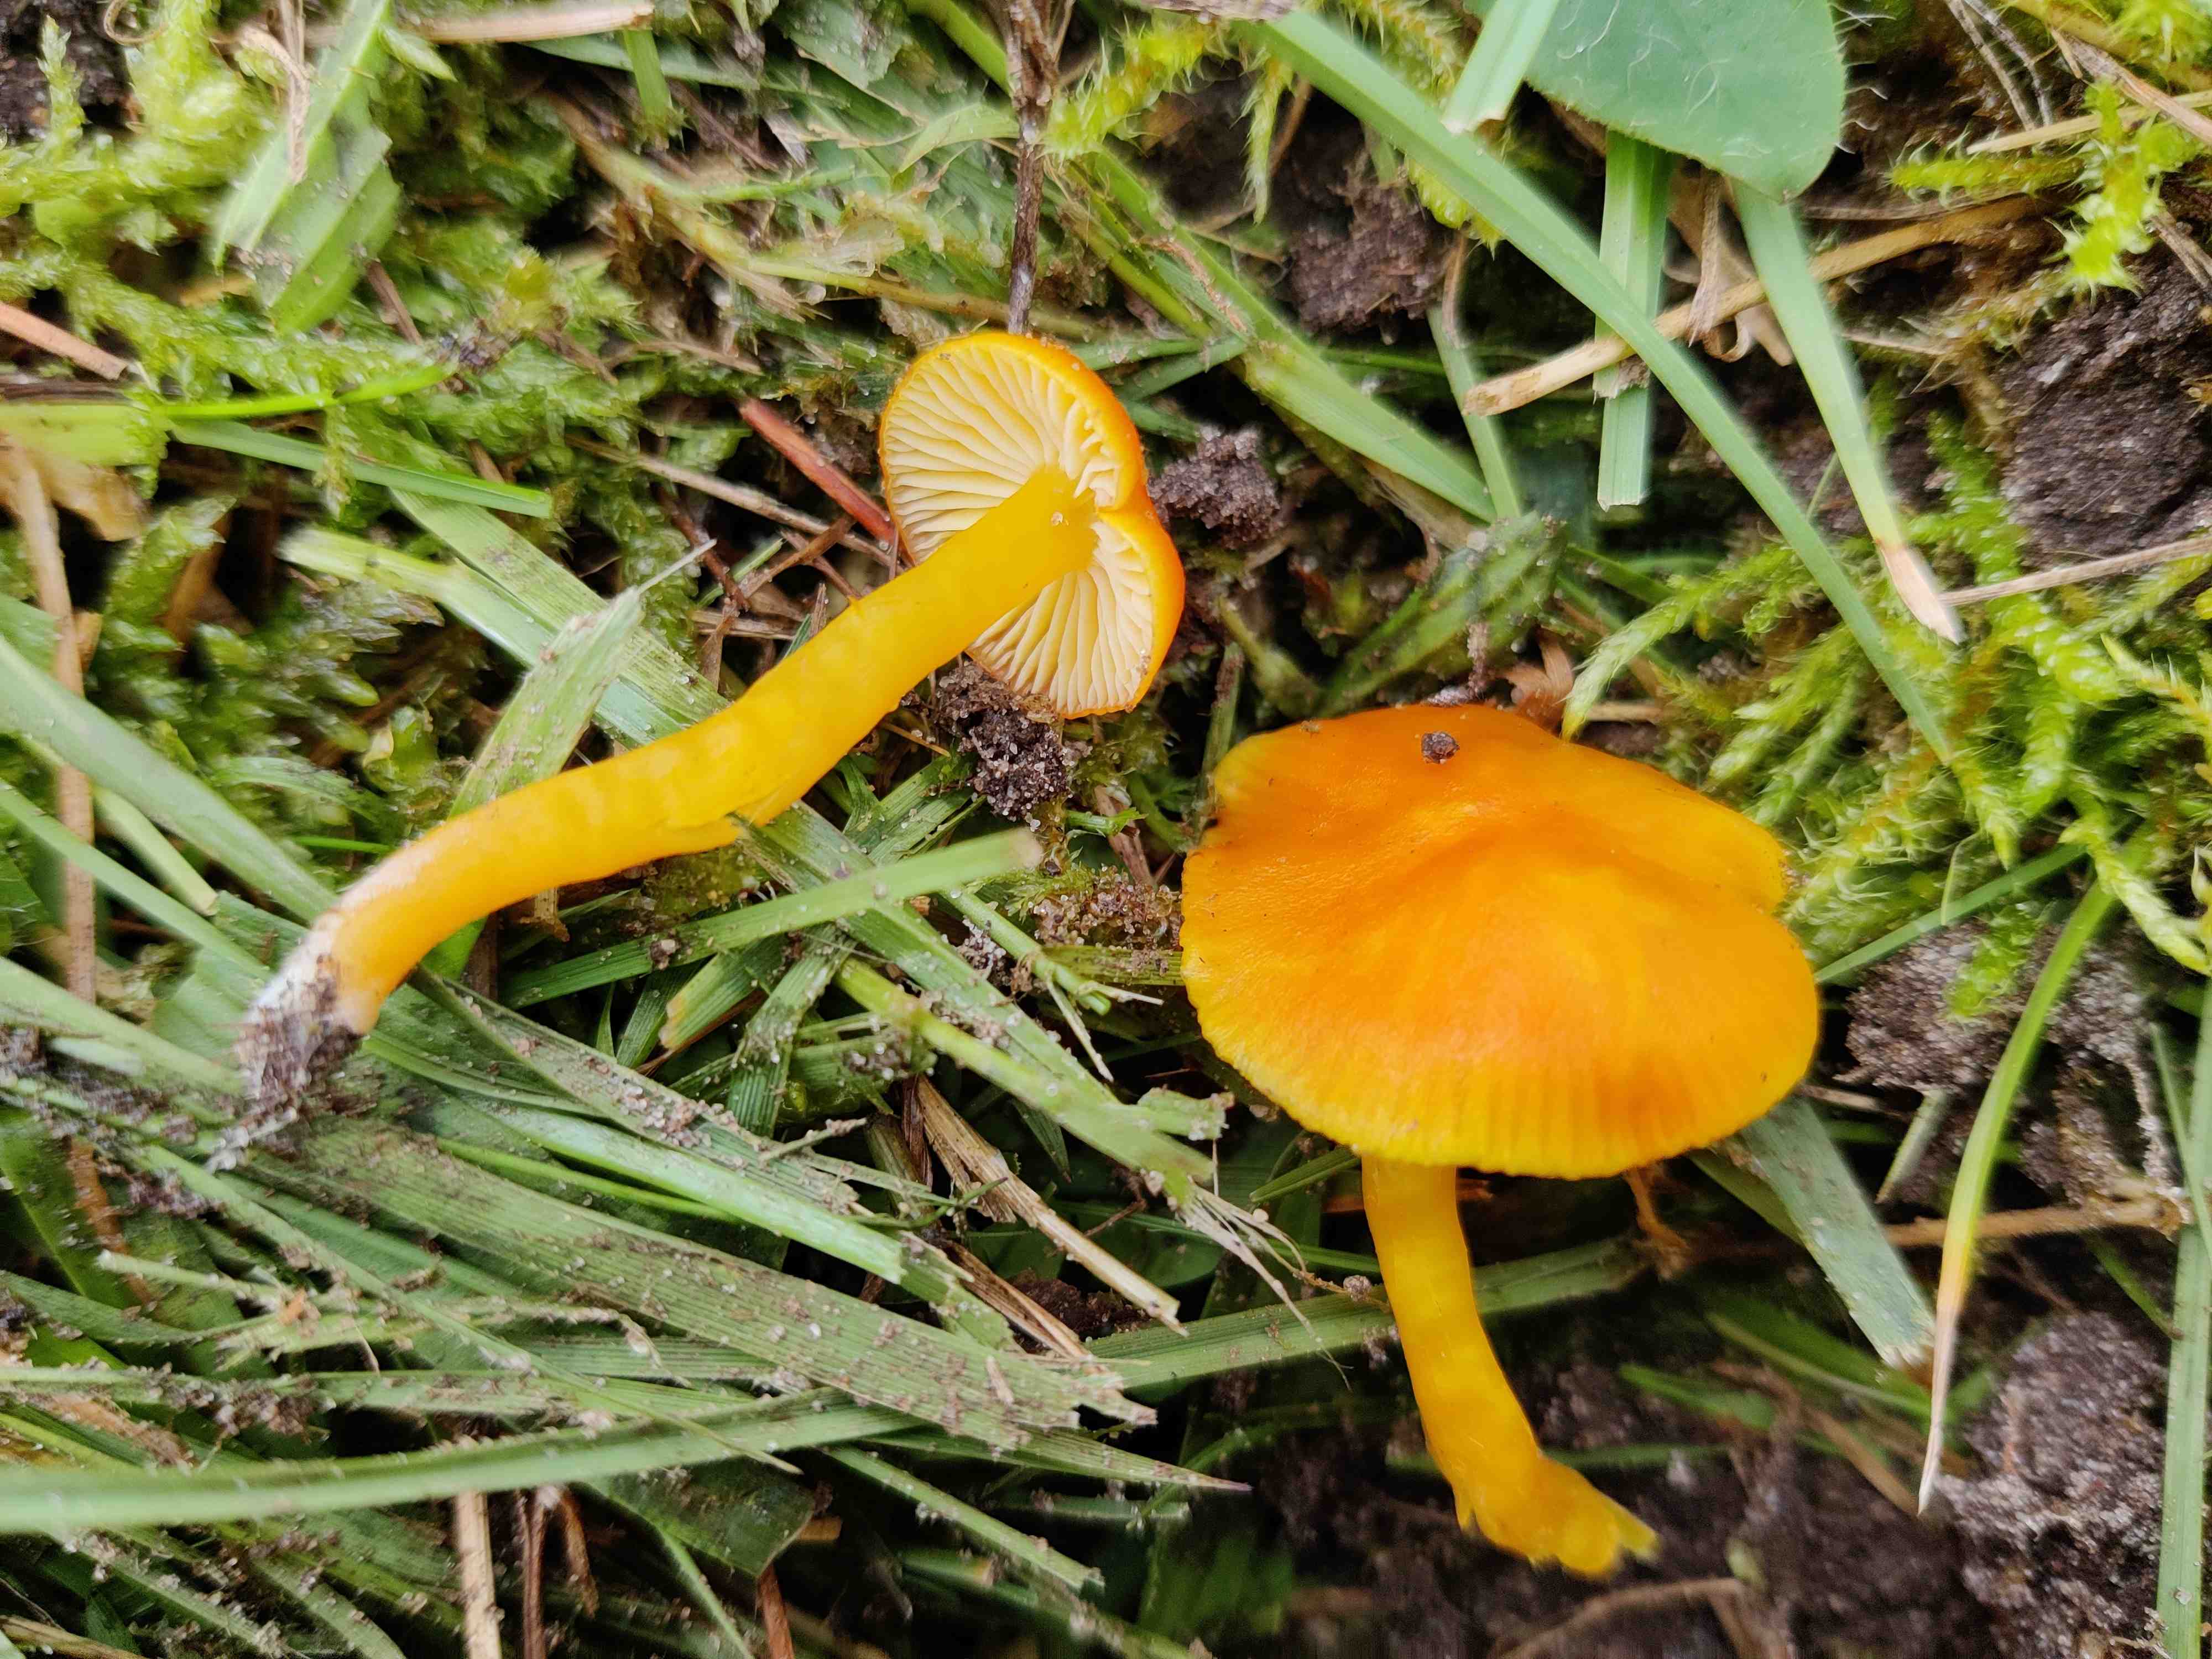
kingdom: Fungi
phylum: Basidiomycota
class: Agaricomycetes
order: Agaricales
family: Hygrophoraceae
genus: Hygrocybe
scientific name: Hygrocybe ceracea
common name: voksgul vokshat
